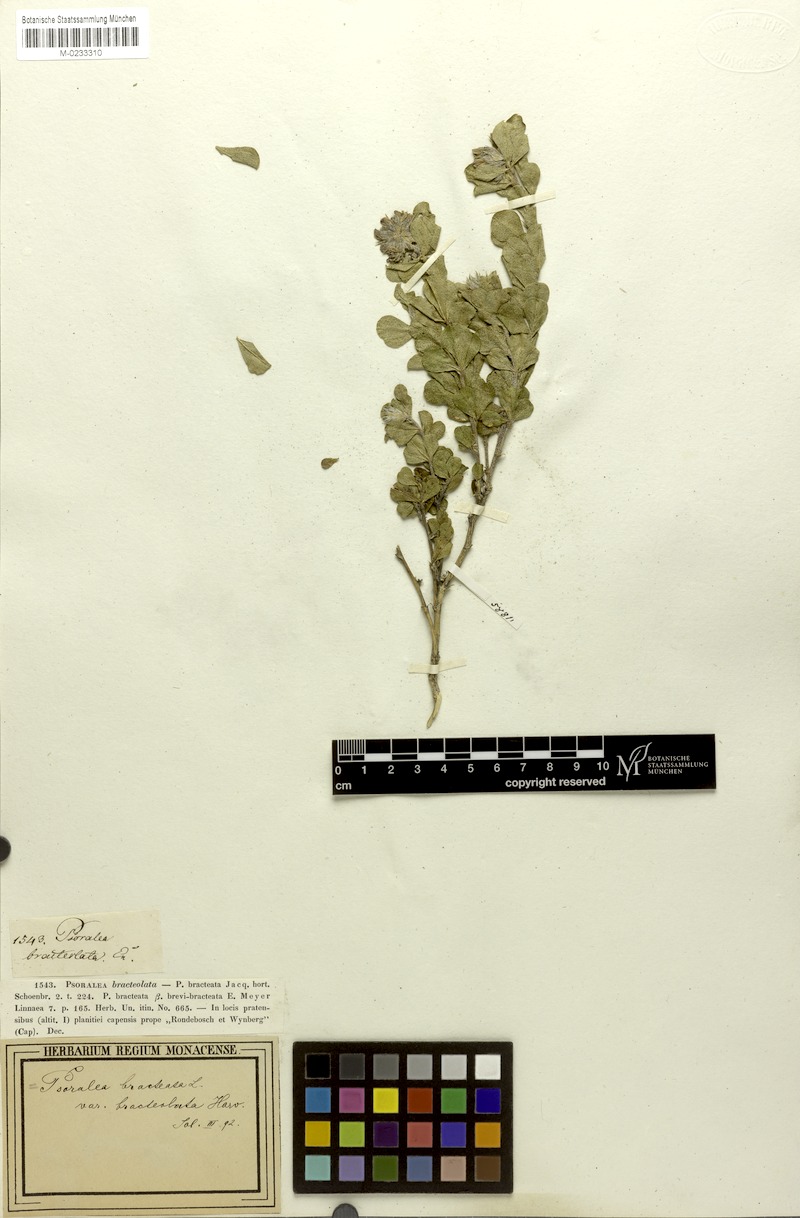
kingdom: Plantae
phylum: Tracheophyta
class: Magnoliopsida
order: Fabales
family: Fabaceae
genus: Psoralea
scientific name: Psoralea bracteolata
